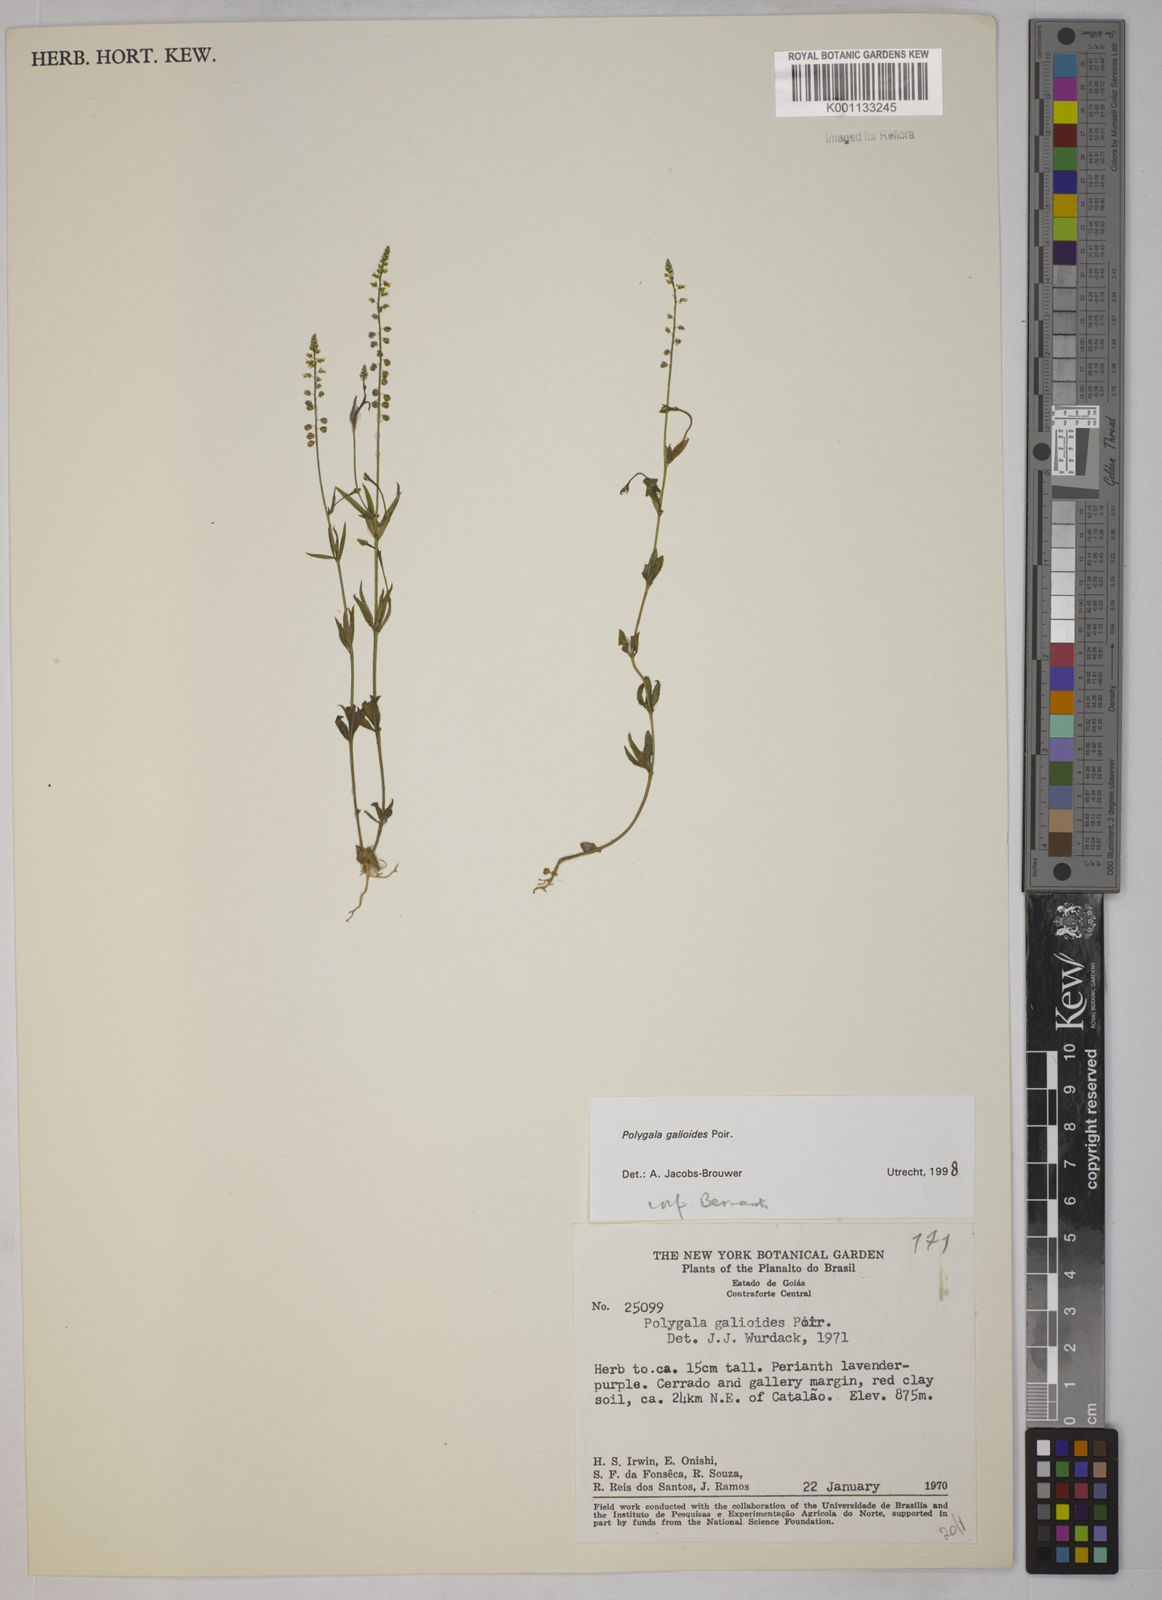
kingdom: Plantae
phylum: Tracheophyta
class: Magnoliopsida
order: Fabales
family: Polygalaceae
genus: Polygala
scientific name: Polygala galioides
